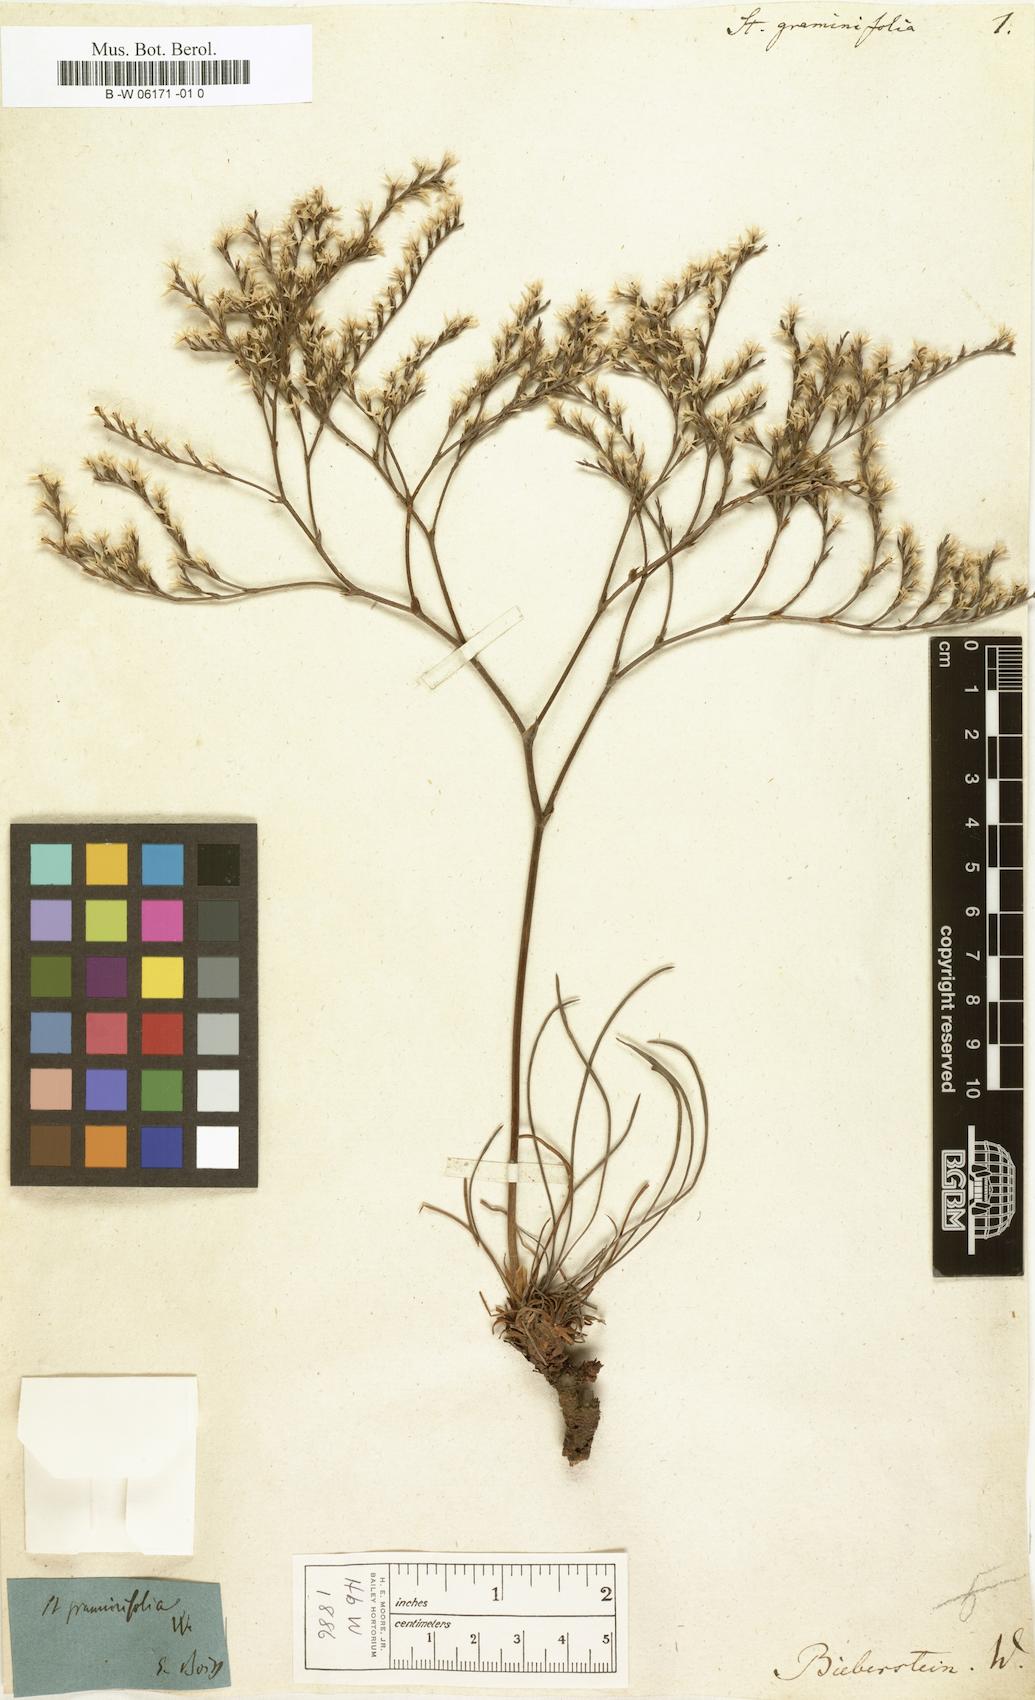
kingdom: Plantae
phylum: Tracheophyta
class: Magnoliopsida
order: Caryophyllales
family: Plumbaginaceae
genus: Goniolimon
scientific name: Goniolimon
